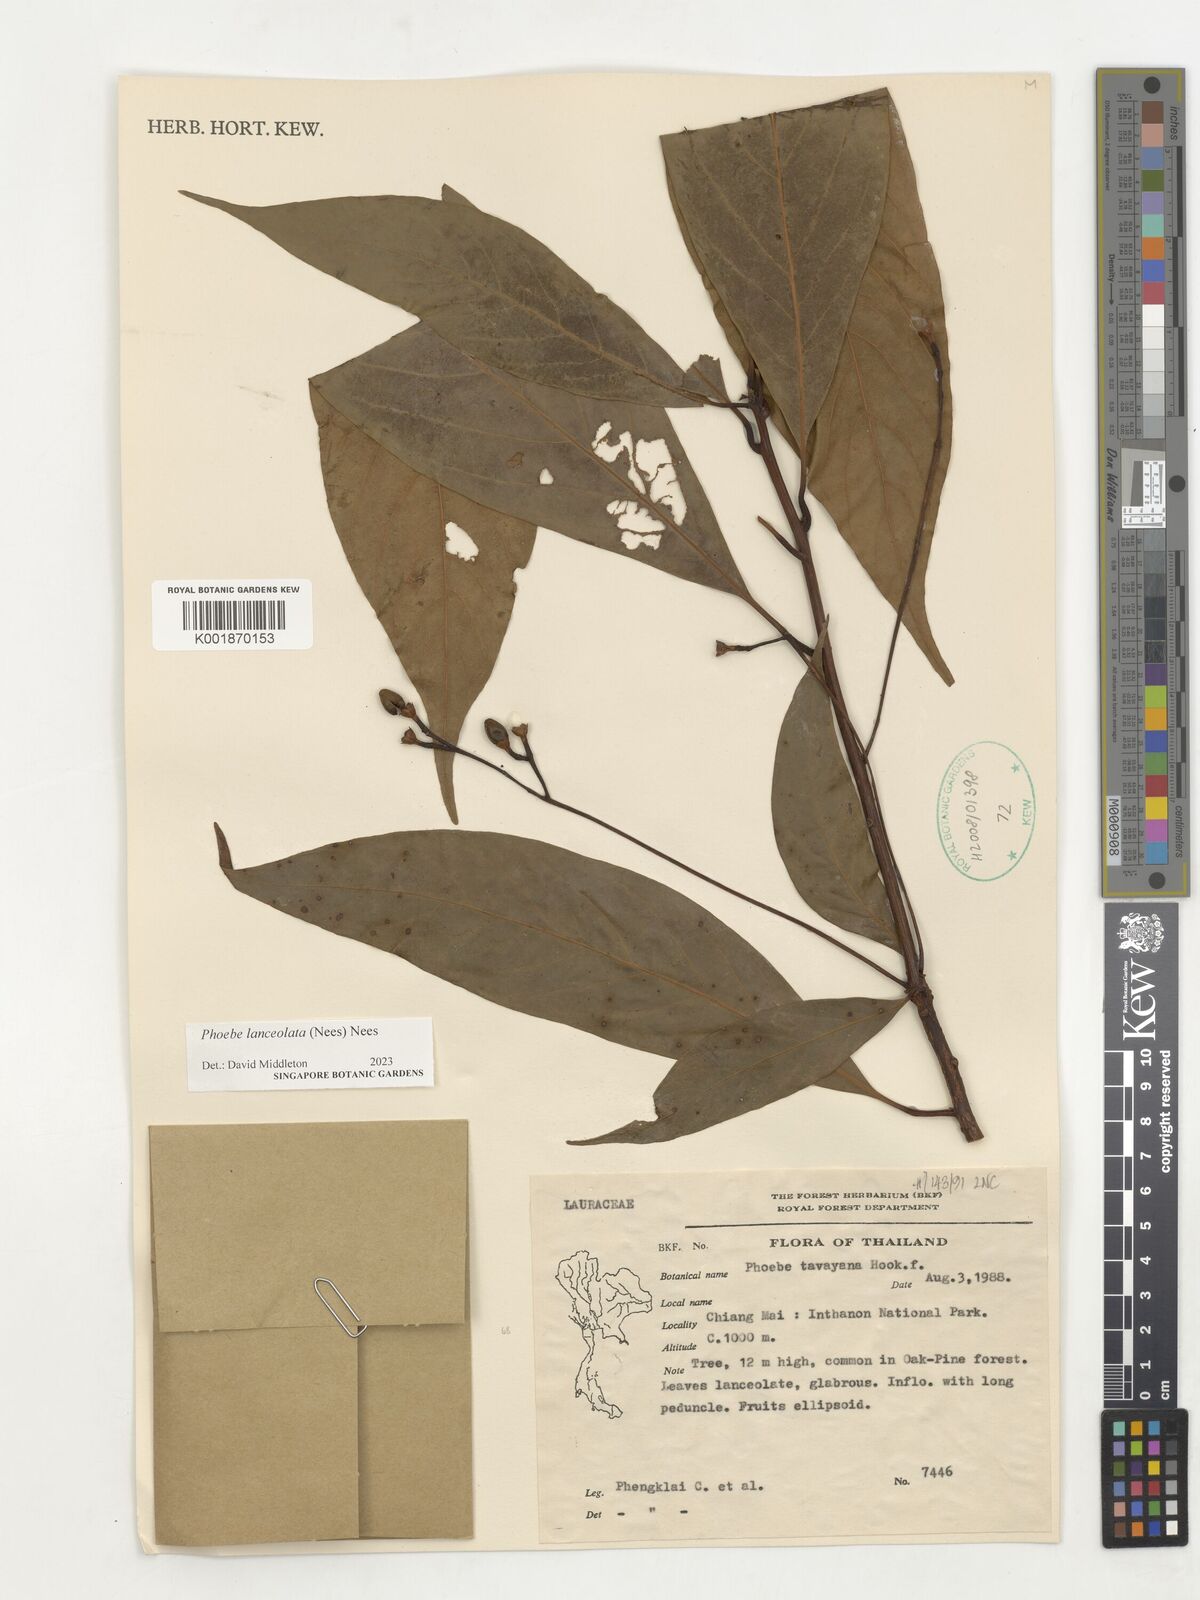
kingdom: Plantae
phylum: Tracheophyta
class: Magnoliopsida
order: Laurales
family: Lauraceae
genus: Phoebe
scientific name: Phoebe lanceolata
